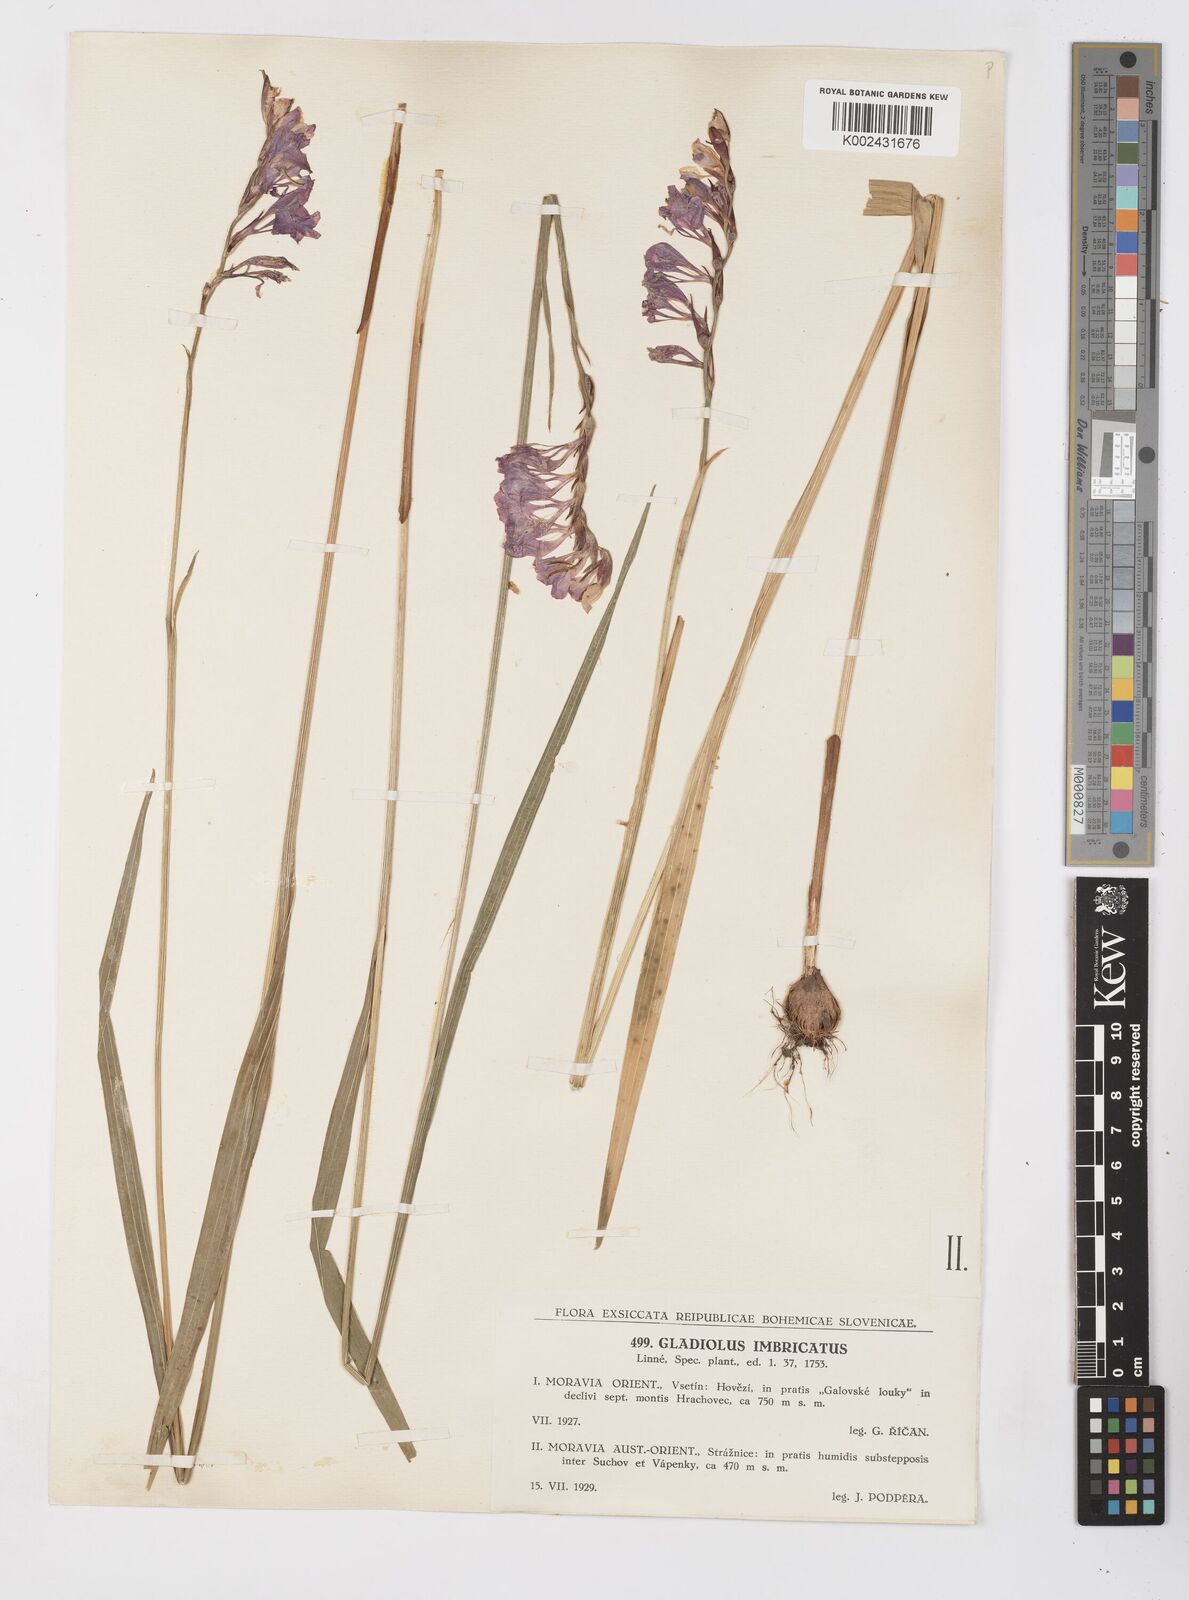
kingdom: Plantae
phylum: Tracheophyta
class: Liliopsida
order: Asparagales
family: Iridaceae
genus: Gladiolus
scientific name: Gladiolus imbricatus
